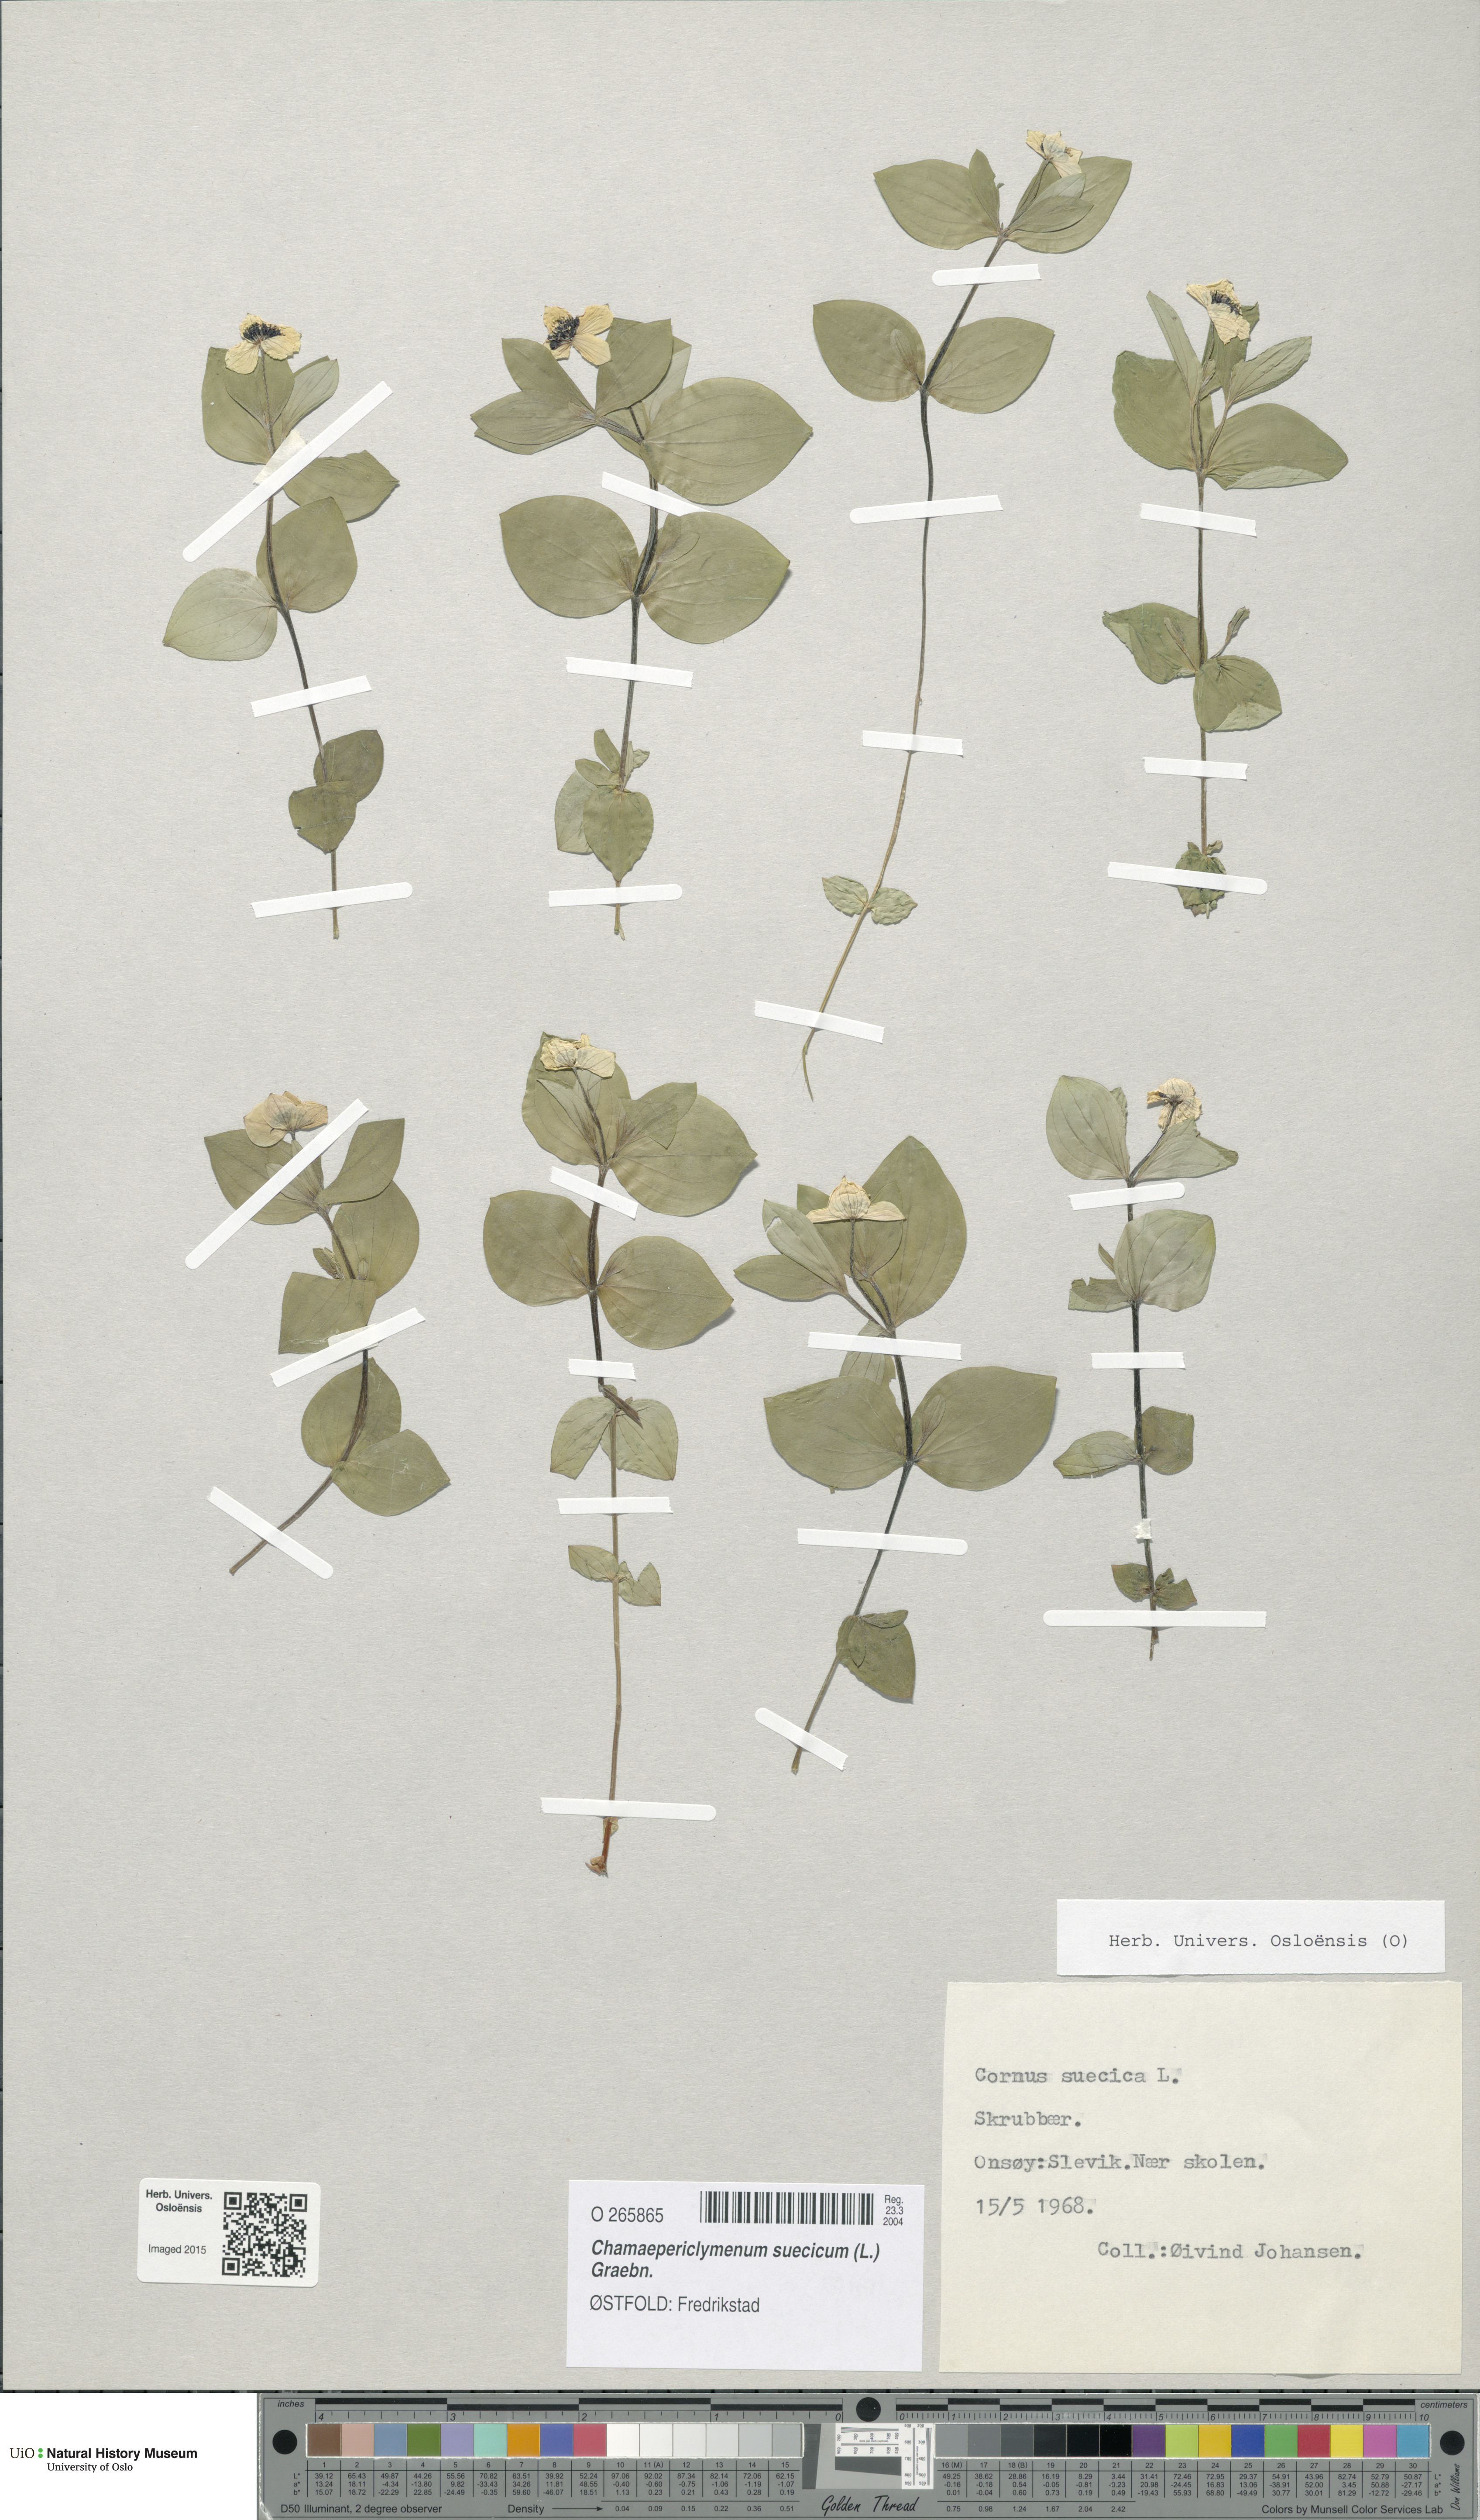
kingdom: Plantae
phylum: Tracheophyta
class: Magnoliopsida
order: Cornales
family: Cornaceae
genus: Cornus
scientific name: Cornus suecica
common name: Dwarf cornel
